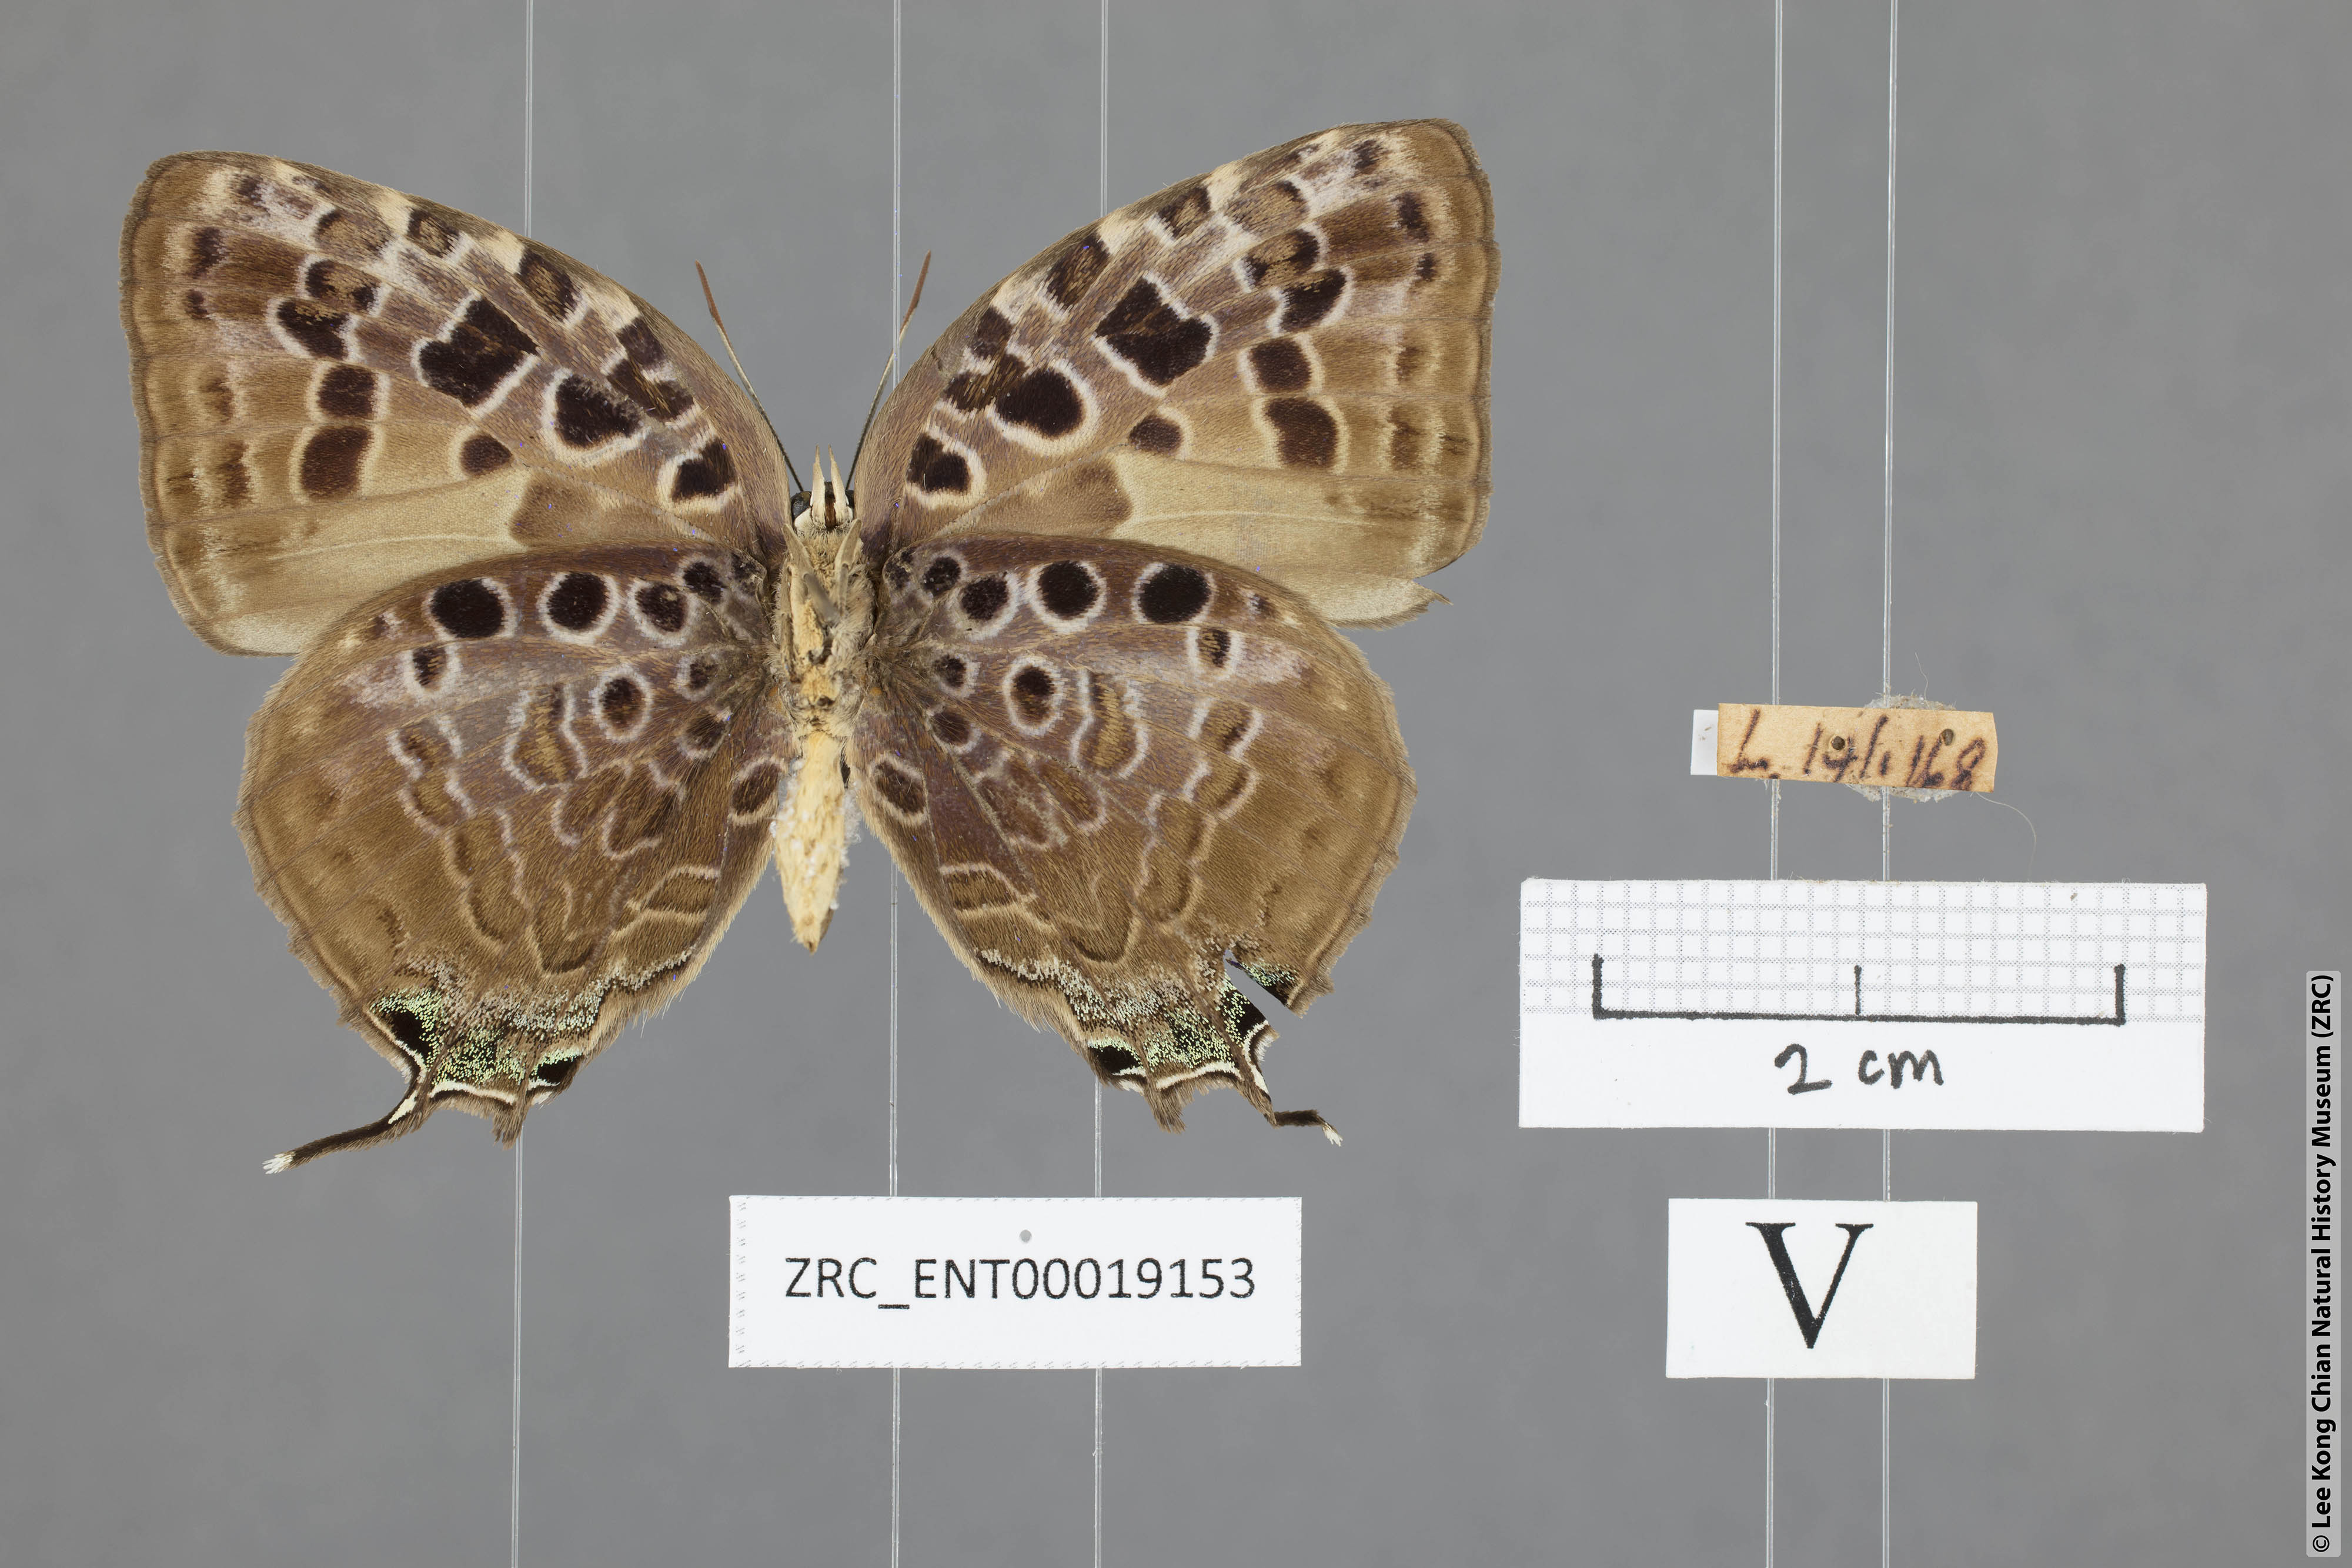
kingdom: Animalia
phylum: Arthropoda
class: Insecta
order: Lepidoptera
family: Lycaenidae
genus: Arhopala
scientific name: Arhopala anthelus
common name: Bushblue
